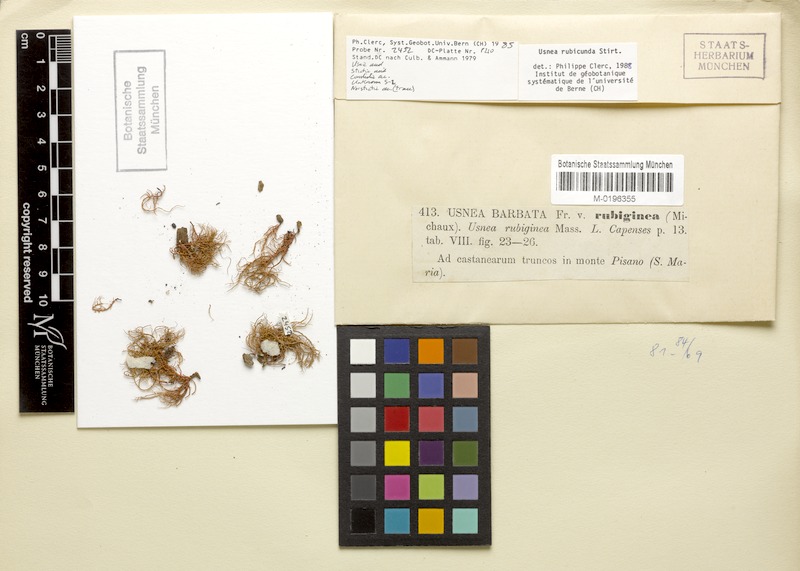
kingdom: Fungi
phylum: Ascomycota
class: Lecanoromycetes
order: Lecanorales
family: Parmeliaceae
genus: Usnea
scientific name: Usnea rubicunda
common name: Red beard lichen
